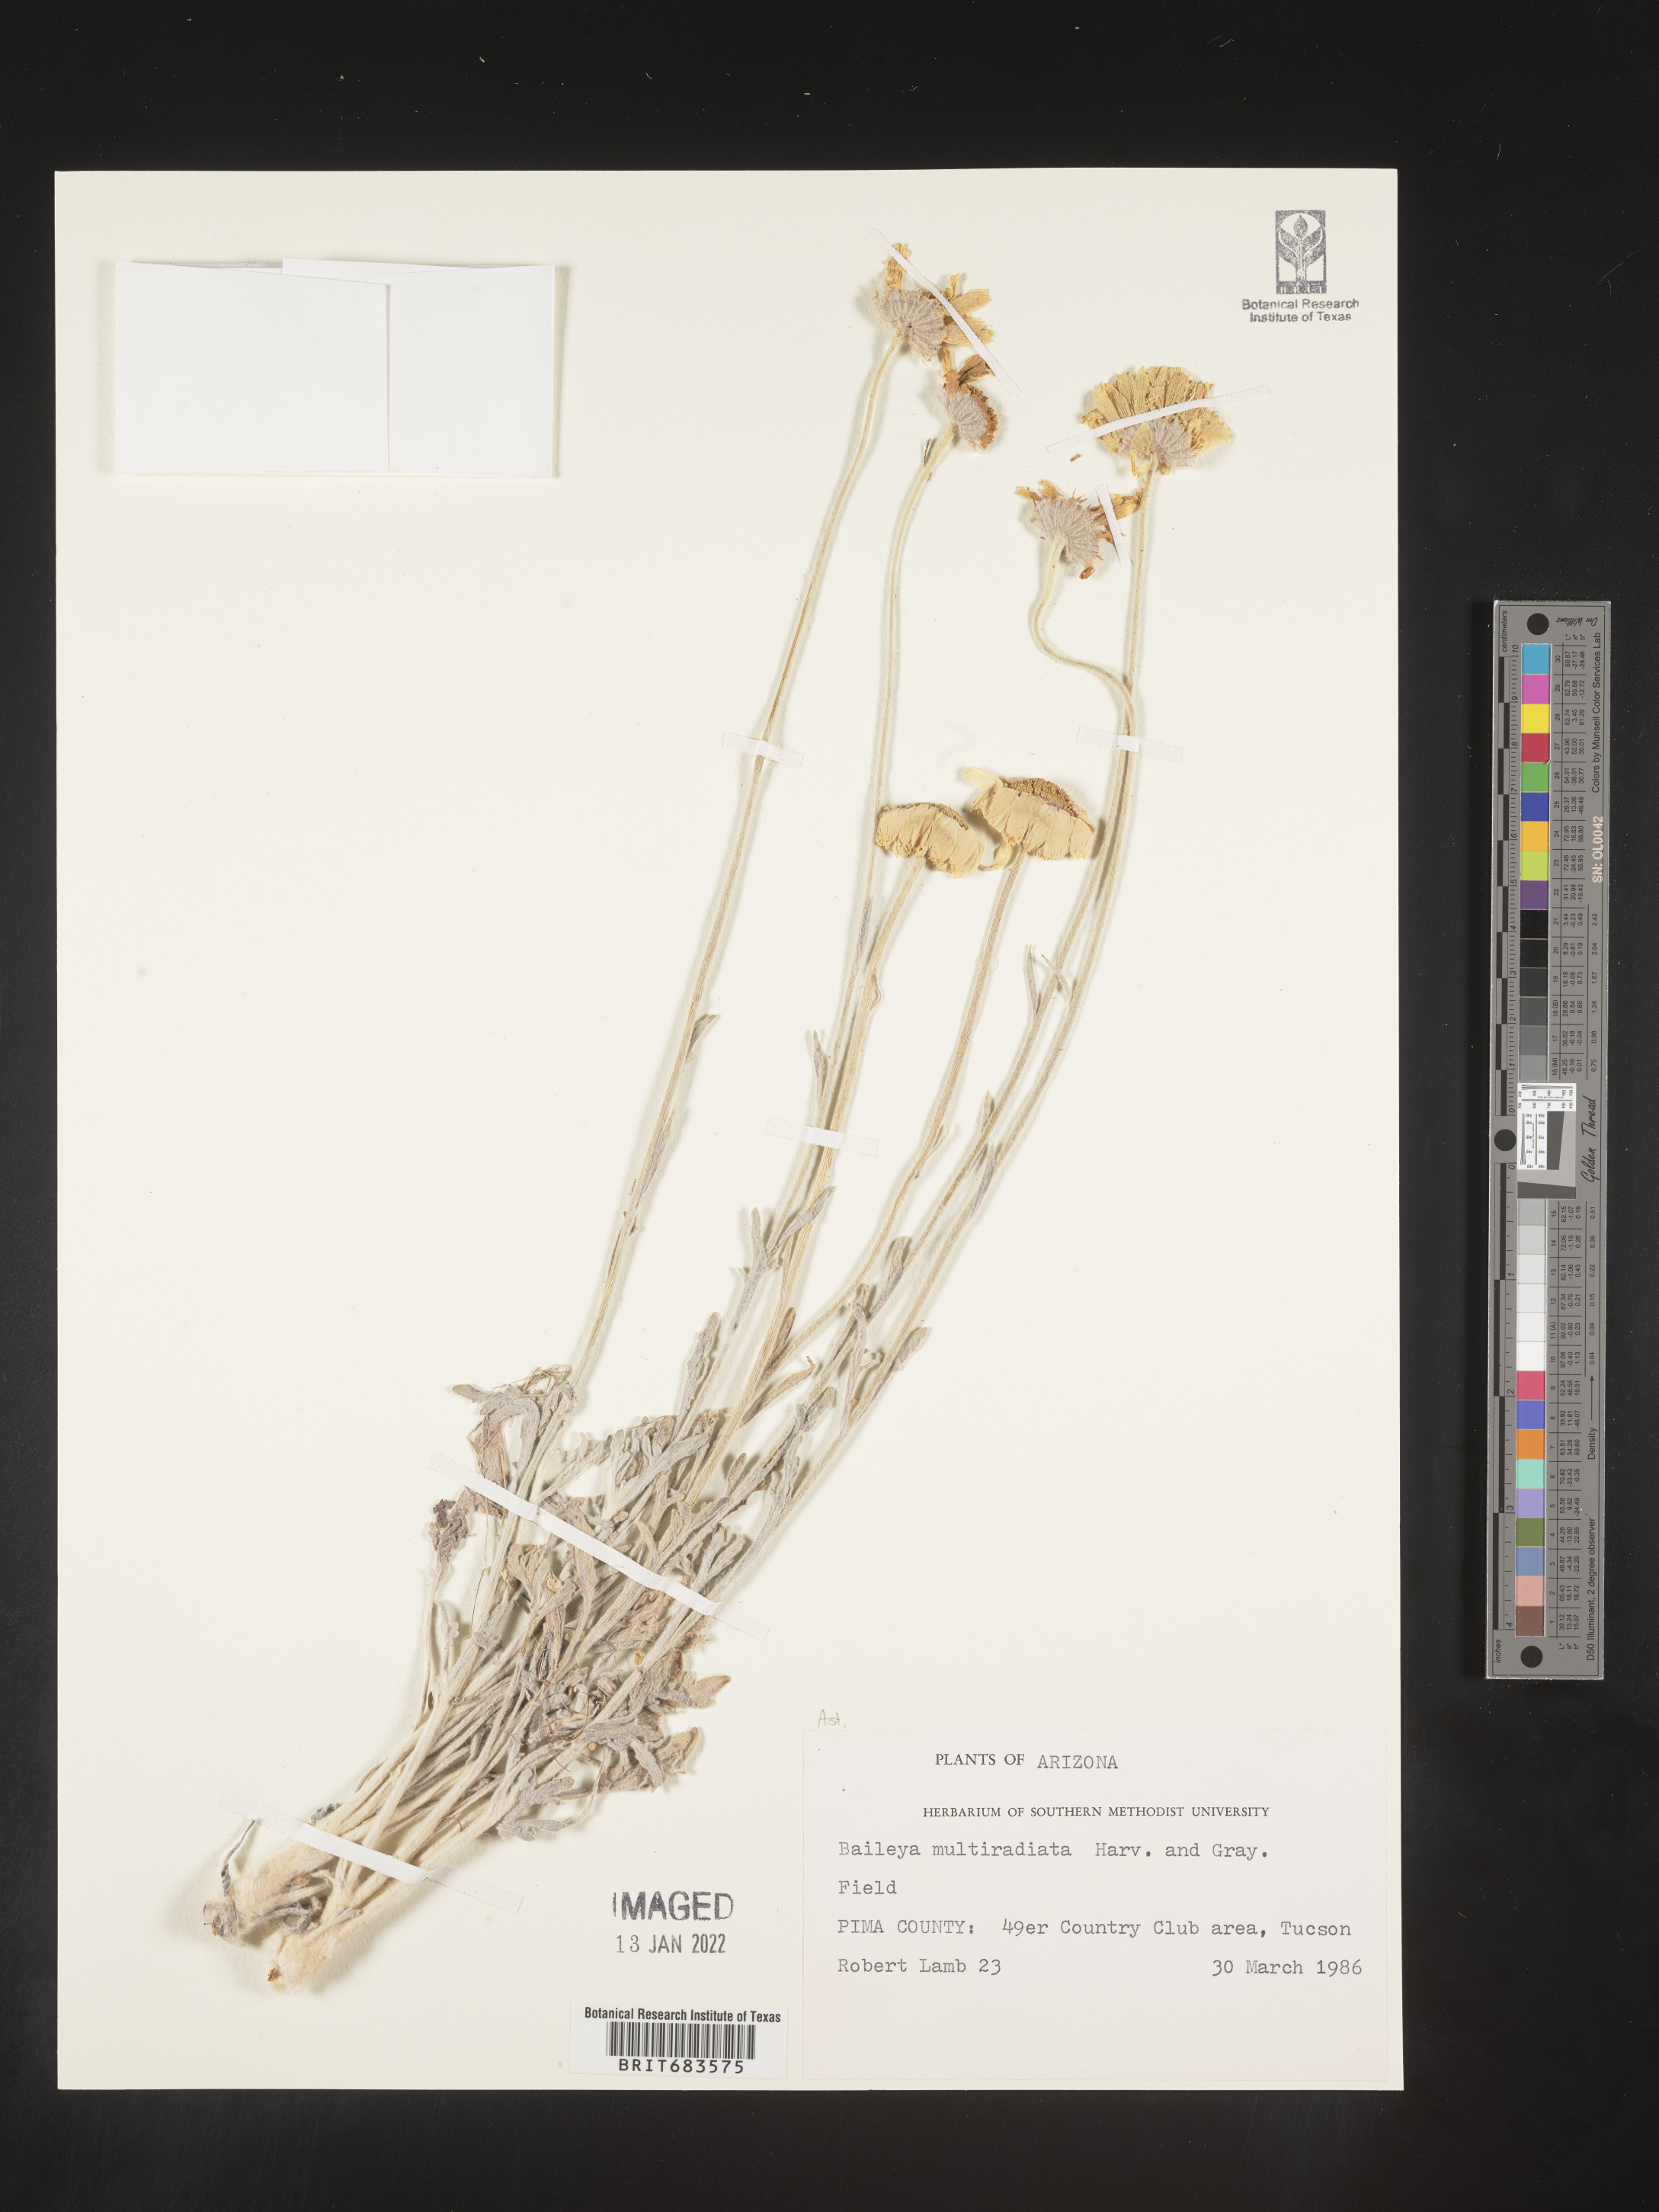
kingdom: Plantae
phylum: Tracheophyta
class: Magnoliopsida
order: Asterales
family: Asteraceae
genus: Baileya
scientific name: Baileya multiradiata
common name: Desert-marigold
